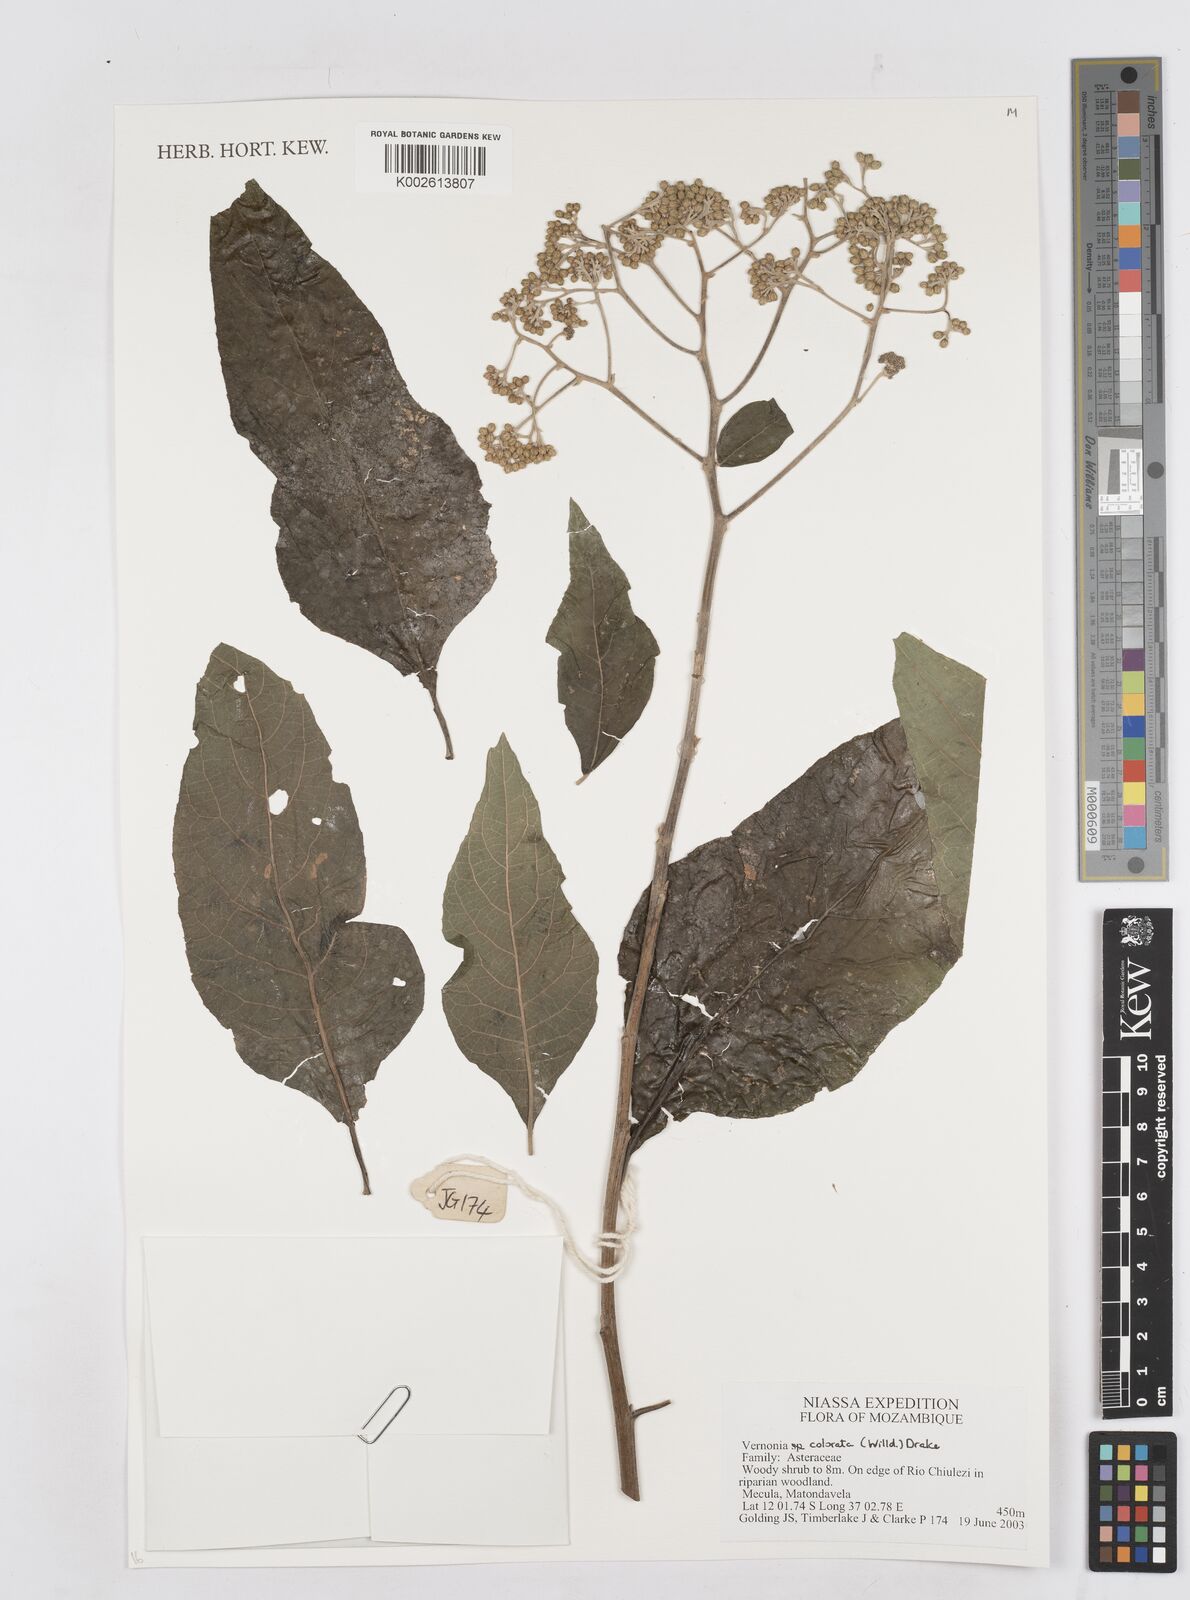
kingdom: Plantae
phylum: Tracheophyta
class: Magnoliopsida
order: Asterales
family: Asteraceae
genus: Vernonia
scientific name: Vernonia colorata
